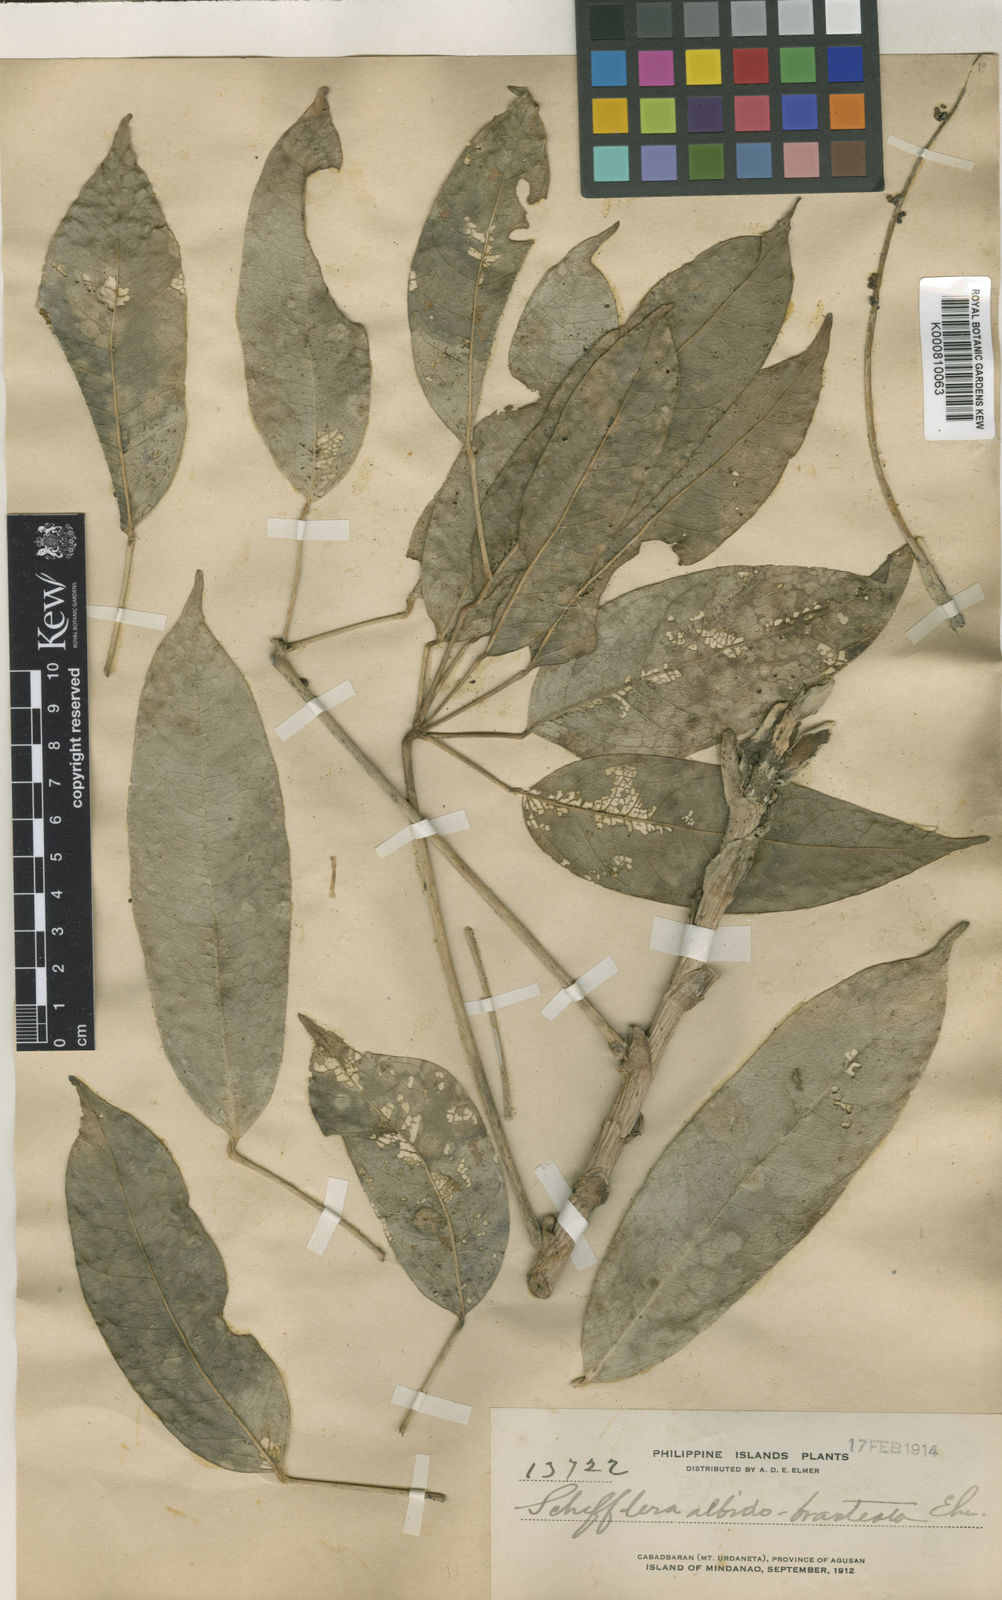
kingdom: Plantae
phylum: Tracheophyta
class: Magnoliopsida
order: Apiales
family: Araliaceae
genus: Heptapleurum
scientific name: Heptapleurum albidobracteatum
